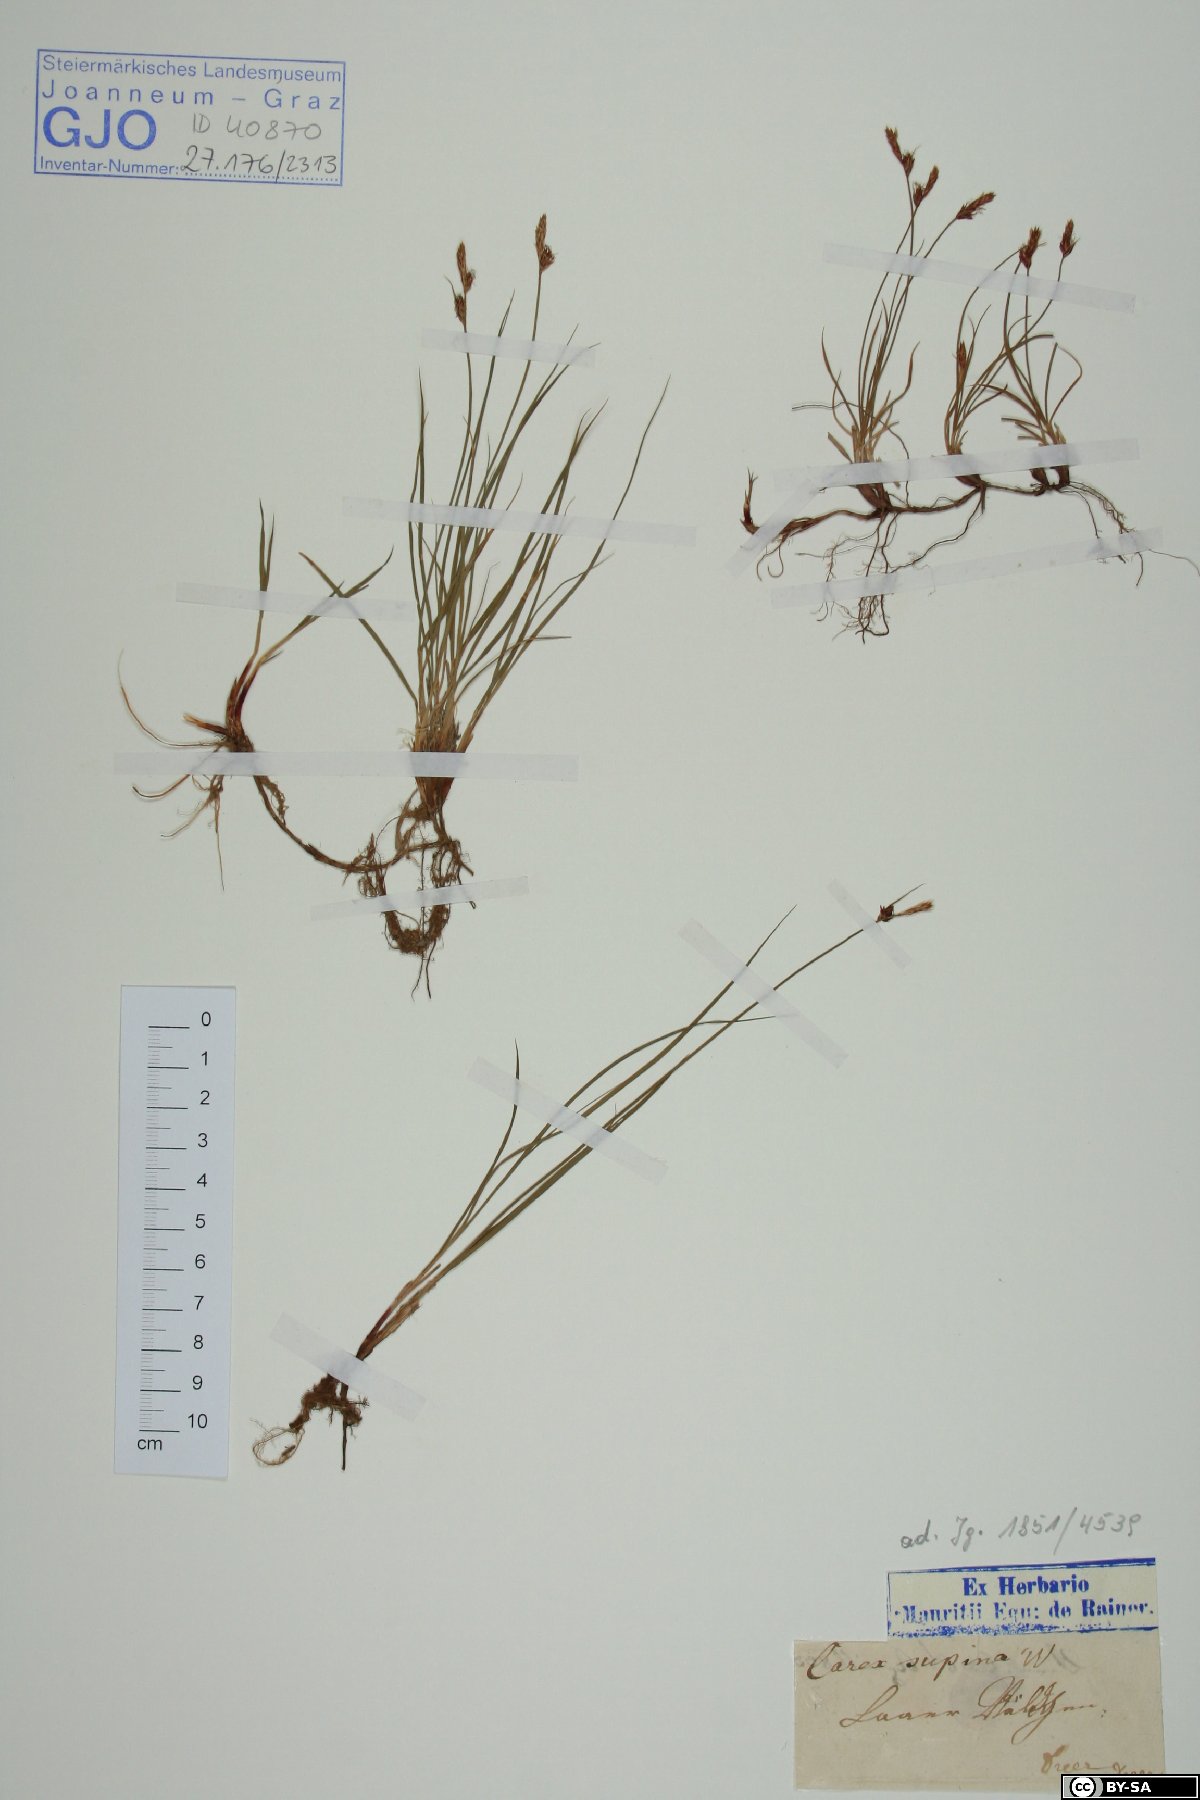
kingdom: Plantae
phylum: Tracheophyta
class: Liliopsida
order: Poales
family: Cyperaceae
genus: Carex
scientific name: Carex supina
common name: Lying-back sedge
